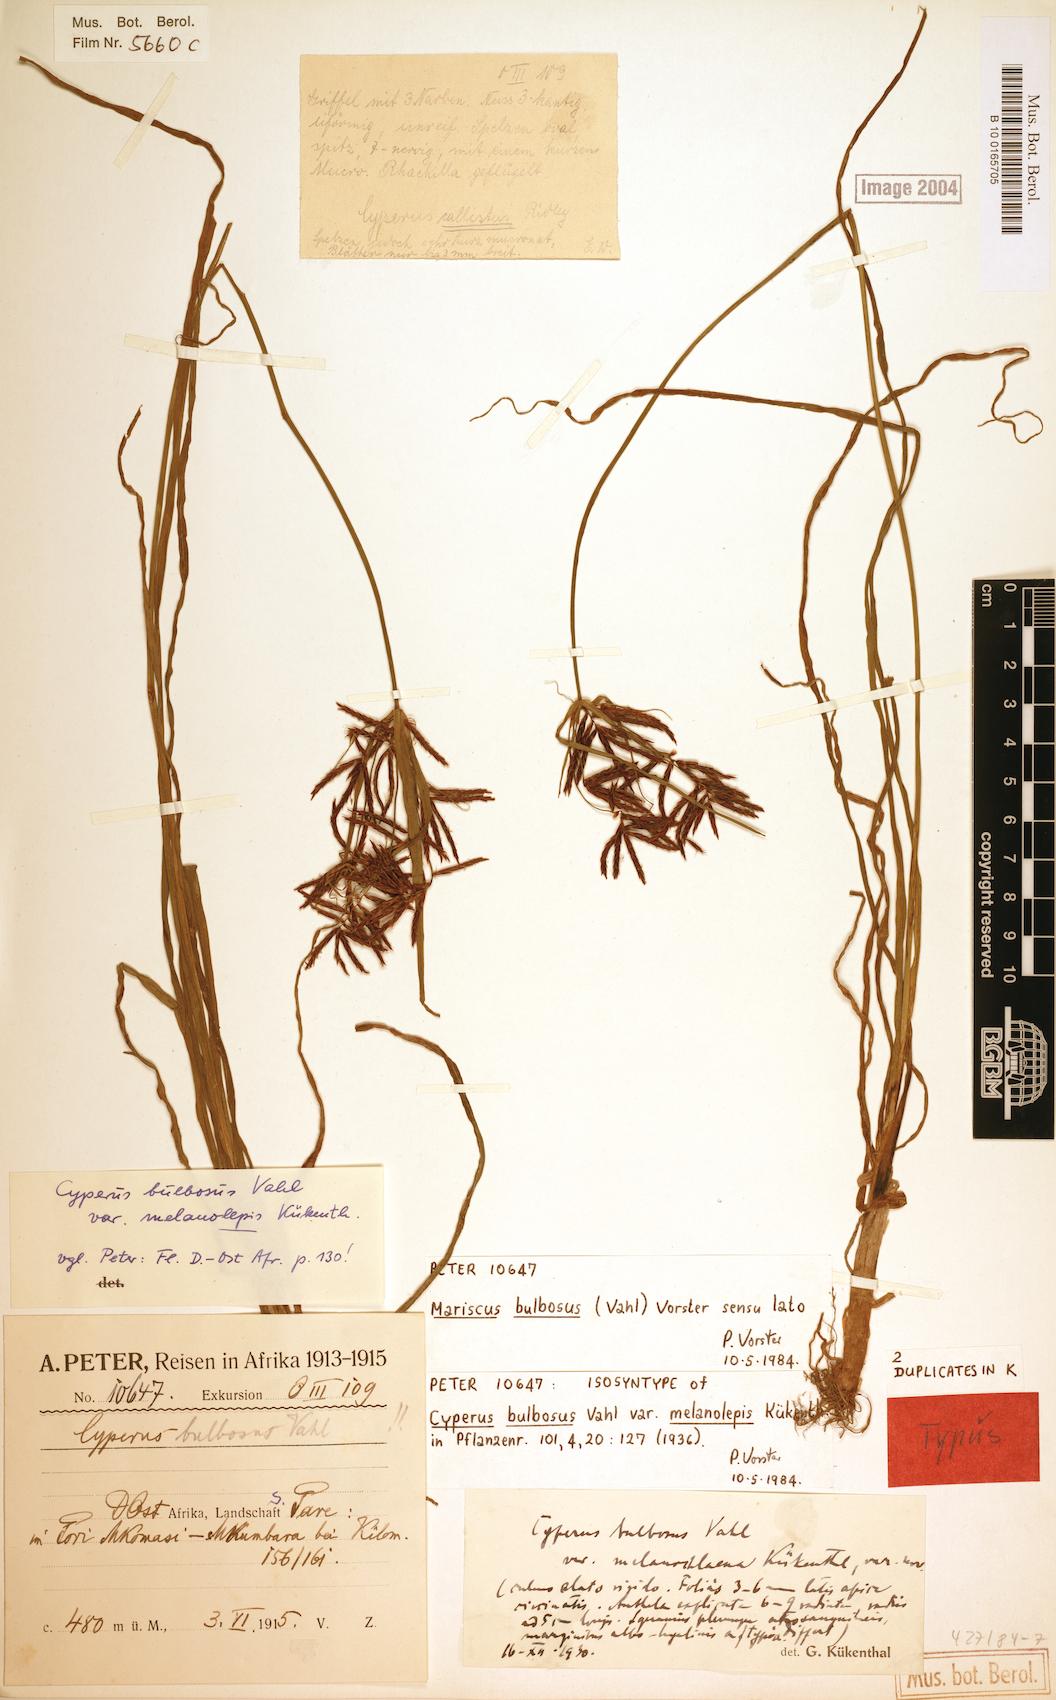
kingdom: Plantae
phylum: Tracheophyta
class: Liliopsida
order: Poales
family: Cyperaceae
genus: Cyperus
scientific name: Cyperus bulbosus
